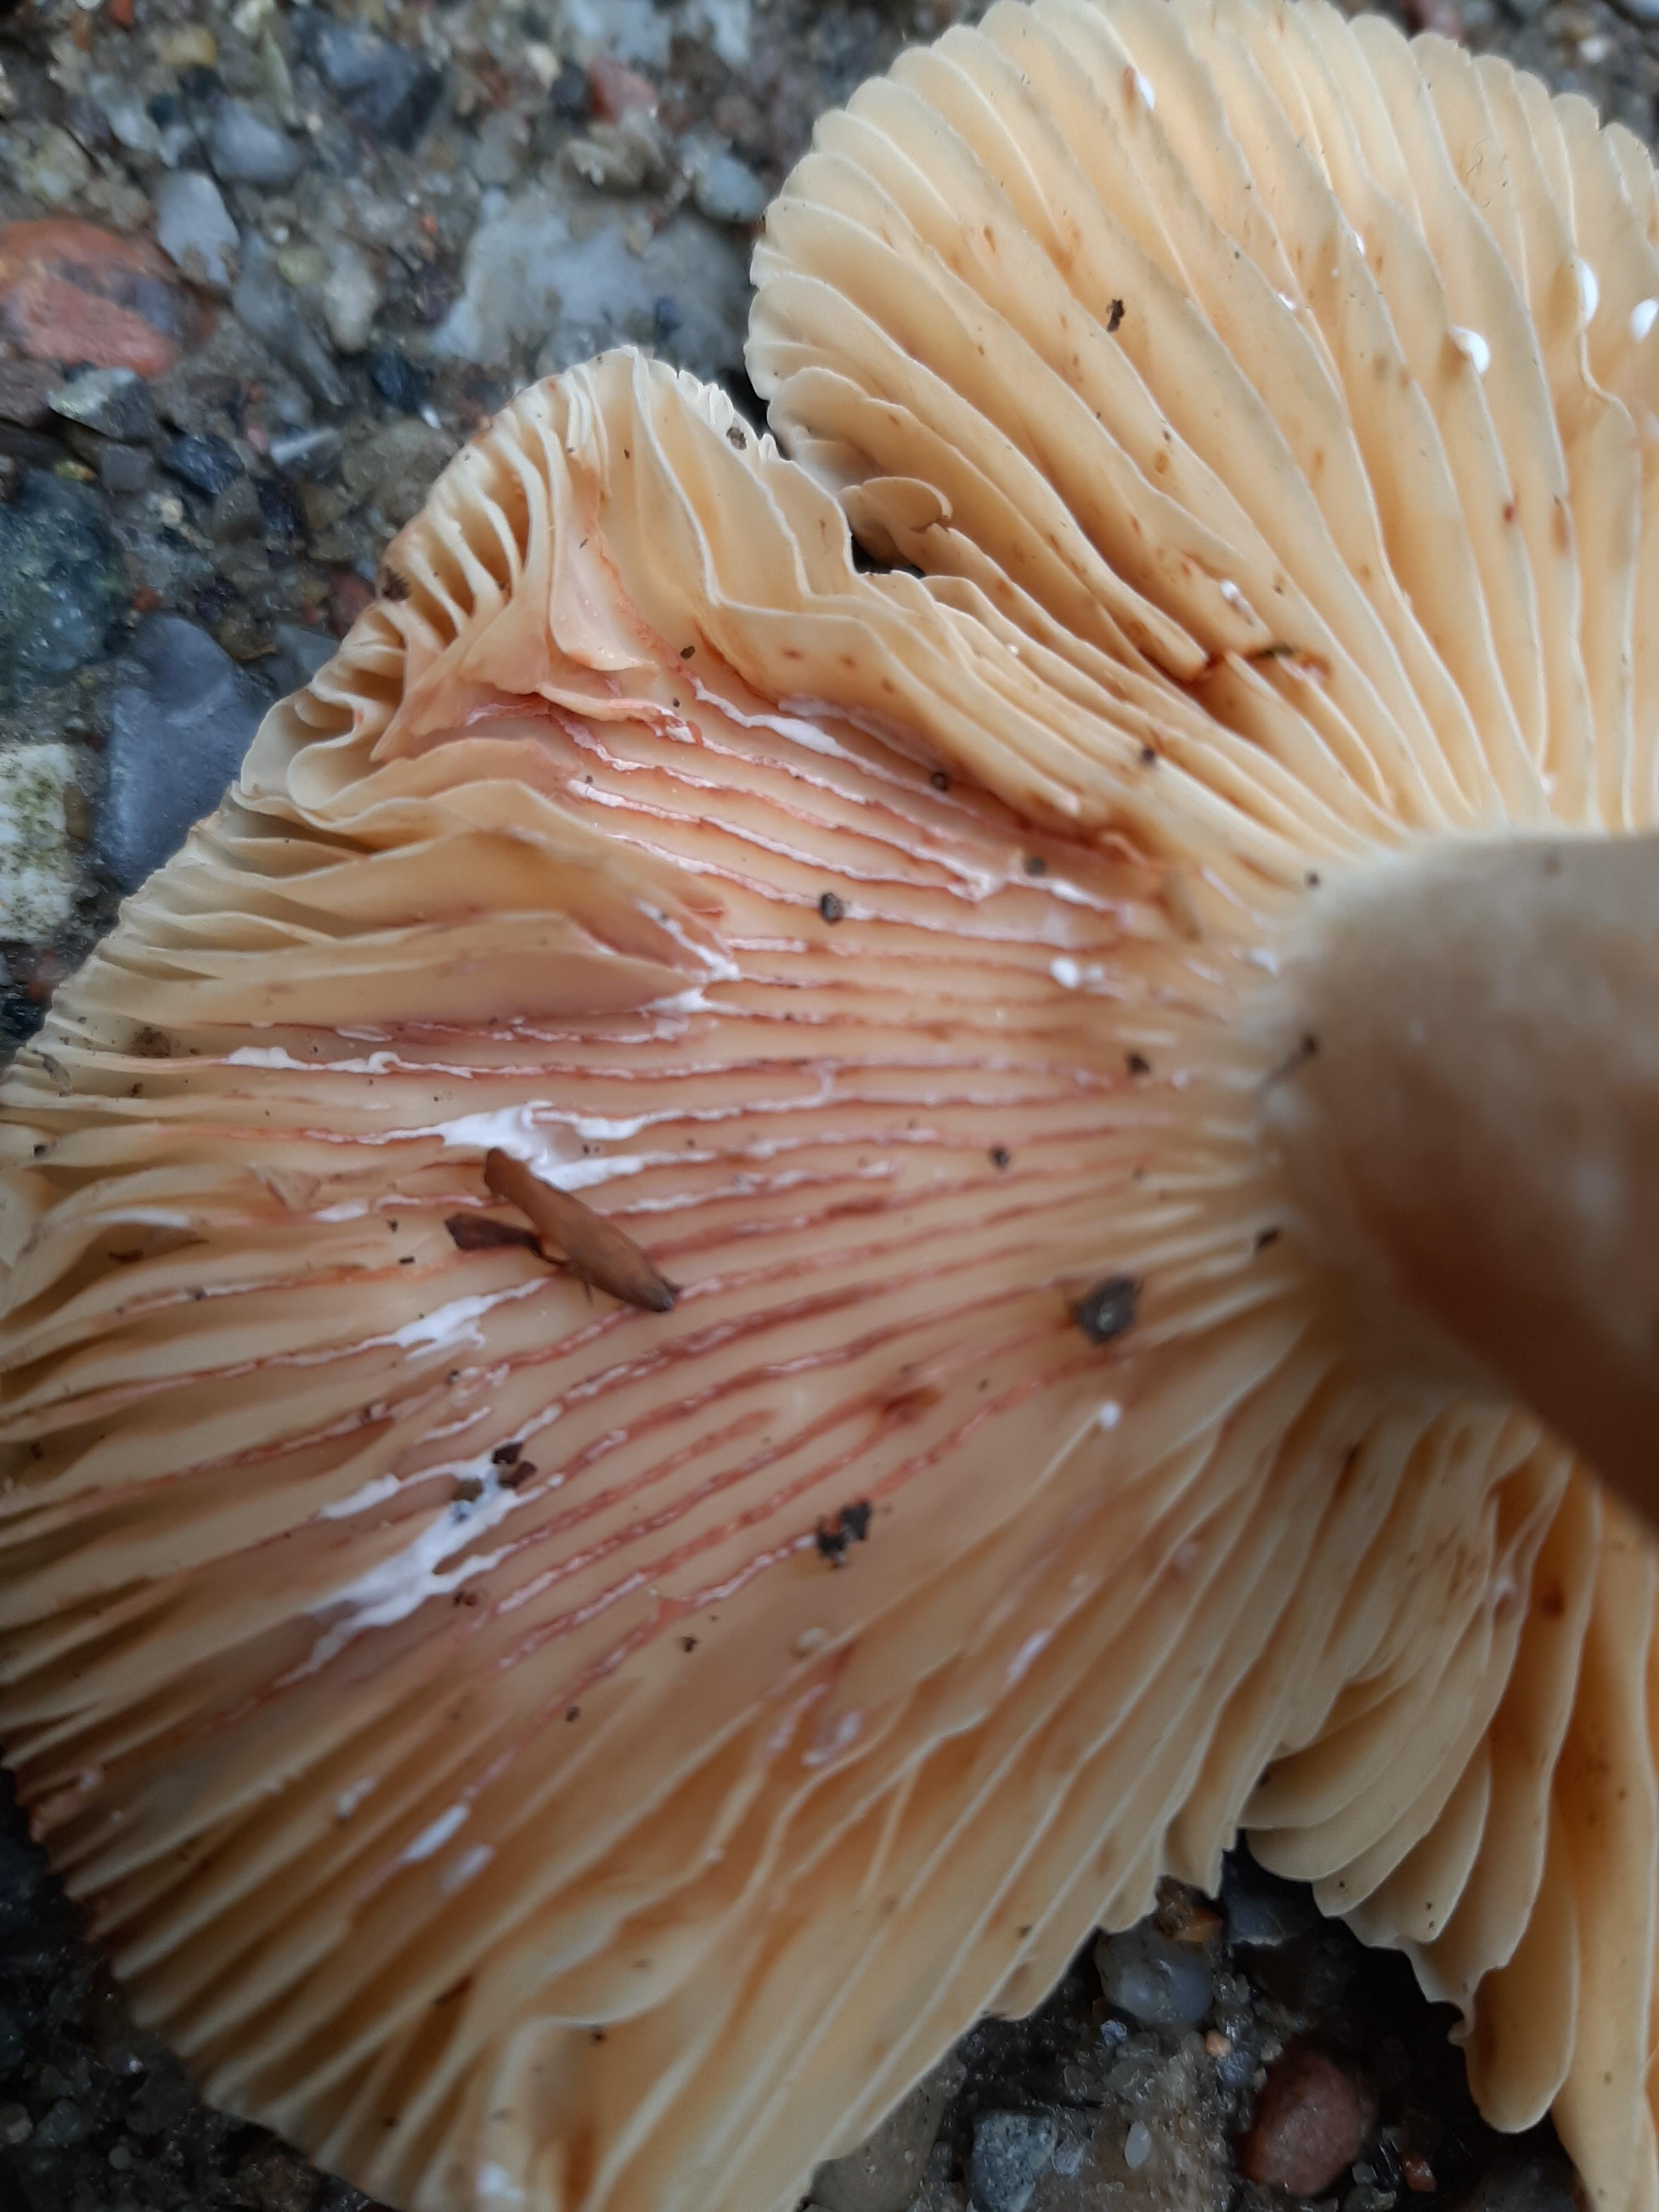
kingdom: Fungi
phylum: Basidiomycota
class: Agaricomycetes
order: Russulales
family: Russulaceae
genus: Lactarius
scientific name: Lactarius acris
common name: rosamælket mælkehat
